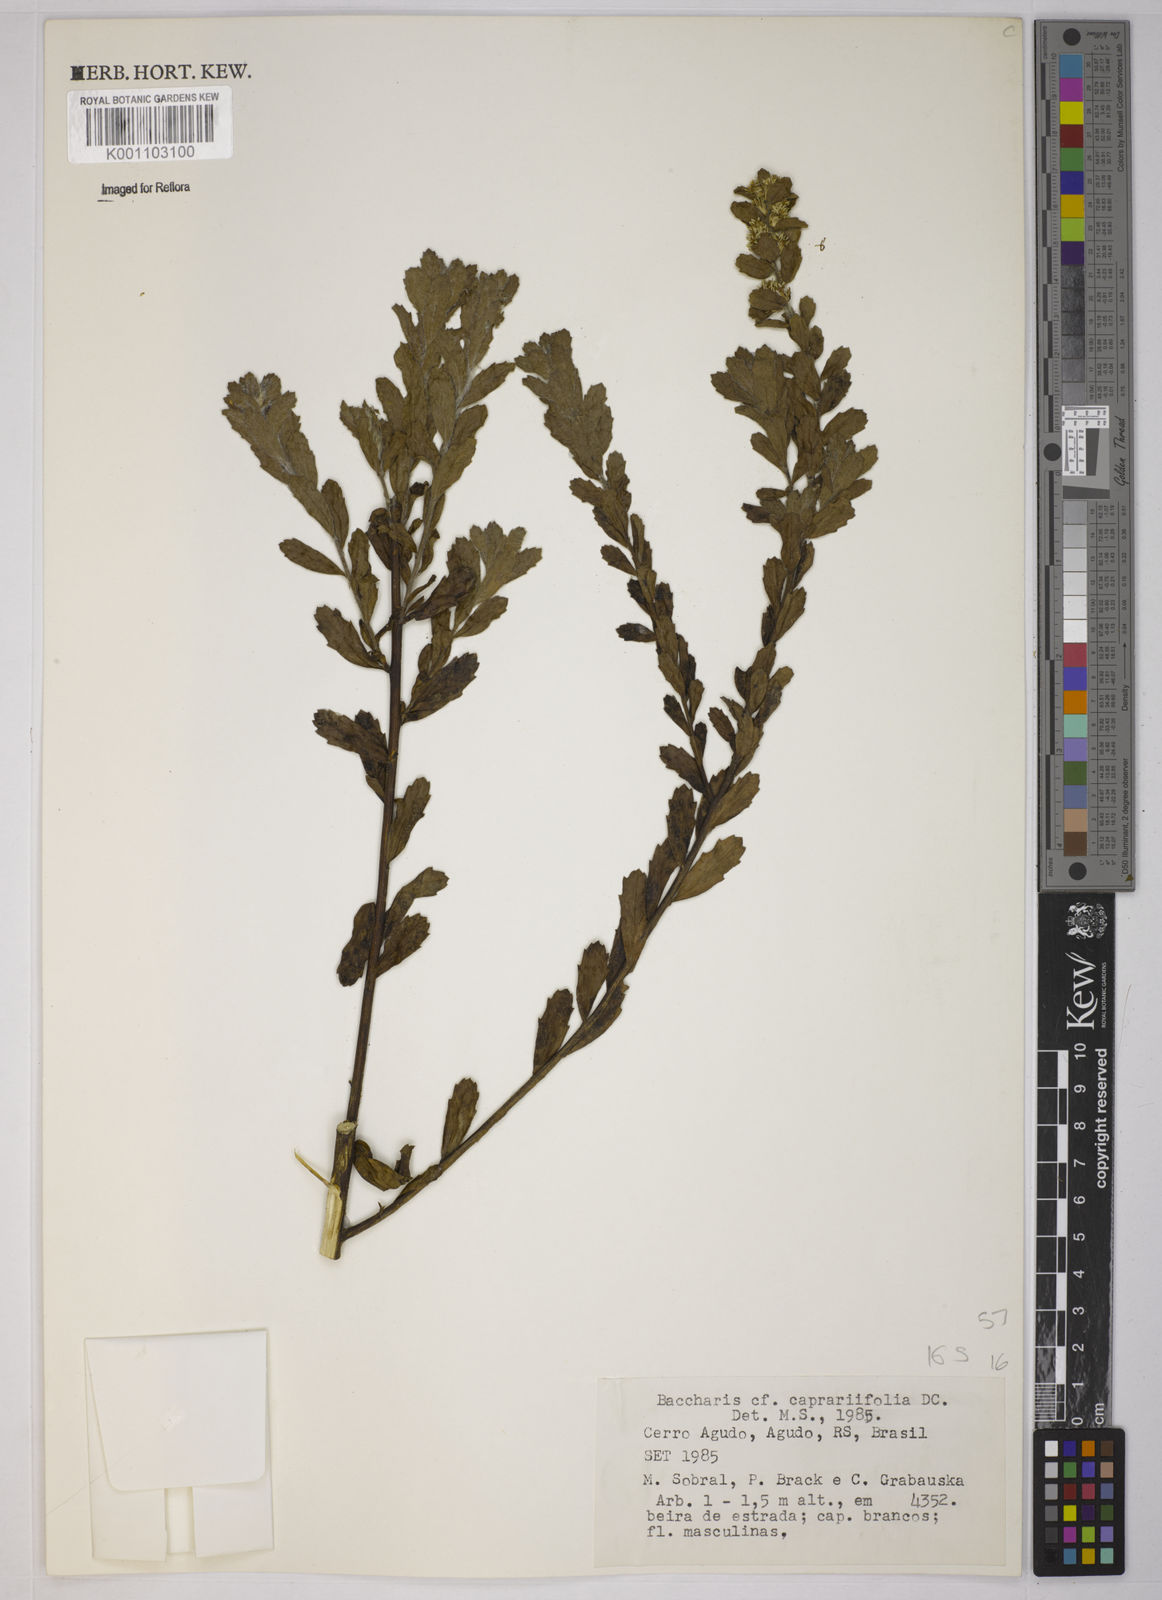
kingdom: Plantae
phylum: Tracheophyta
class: Magnoliopsida
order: Asterales
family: Asteraceae
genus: Baccharis
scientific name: Baccharis caprariifolia
